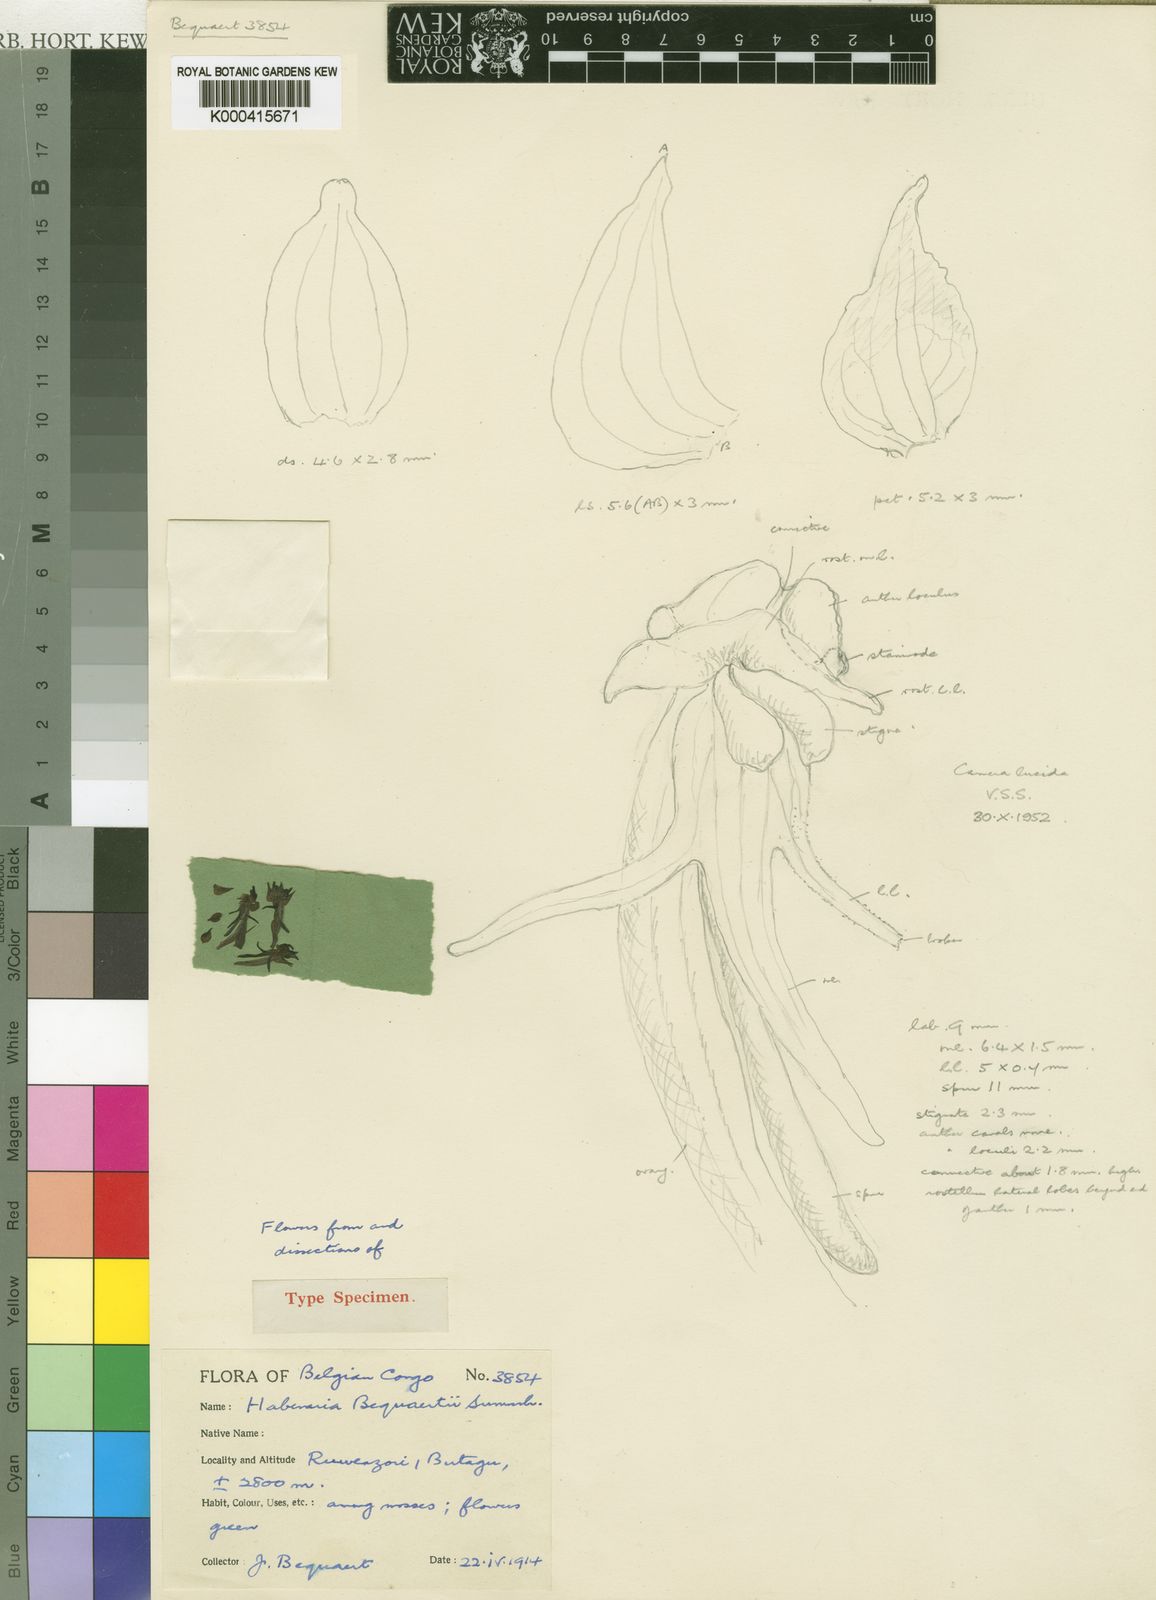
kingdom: Plantae
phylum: Tracheophyta
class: Liliopsida
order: Asparagales
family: Orchidaceae
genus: Habenaria
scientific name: Habenaria bequaertii
